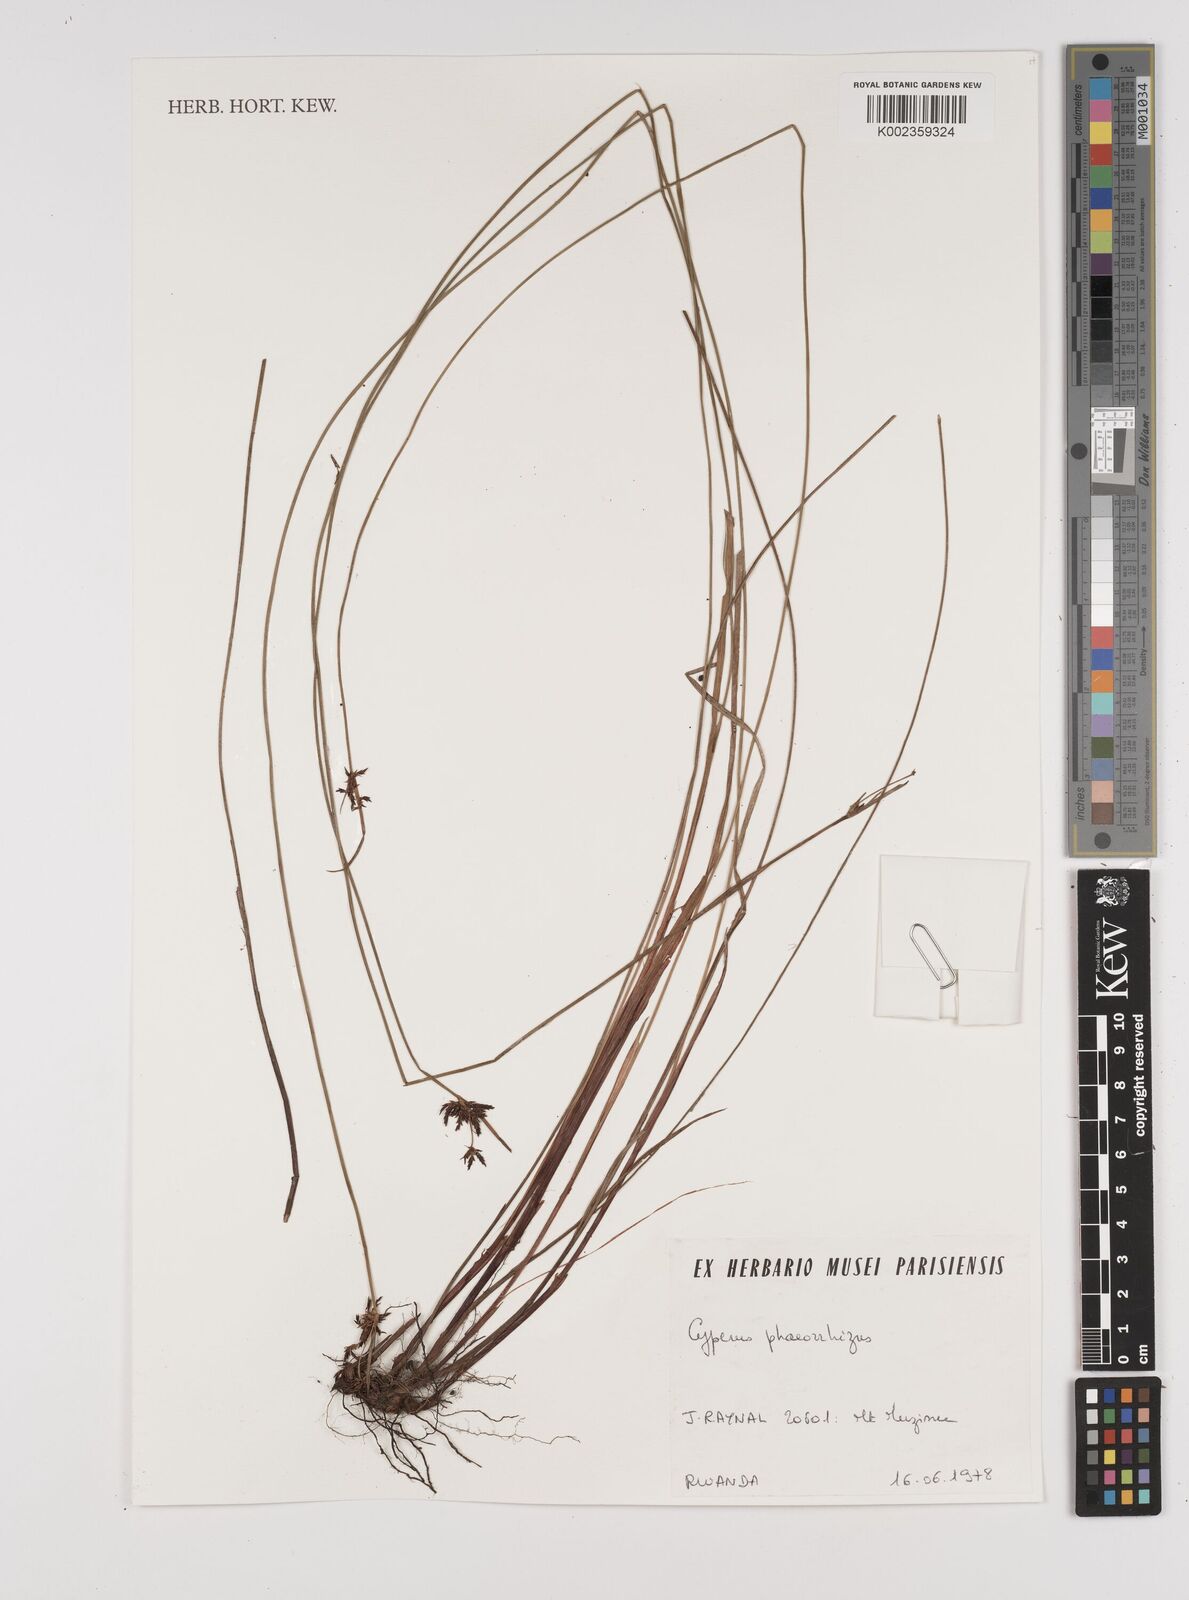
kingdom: Plantae
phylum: Tracheophyta
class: Liliopsida
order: Poales
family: Cyperaceae
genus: Cyperus
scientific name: Cyperus haspan
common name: Haspan flatsedge
